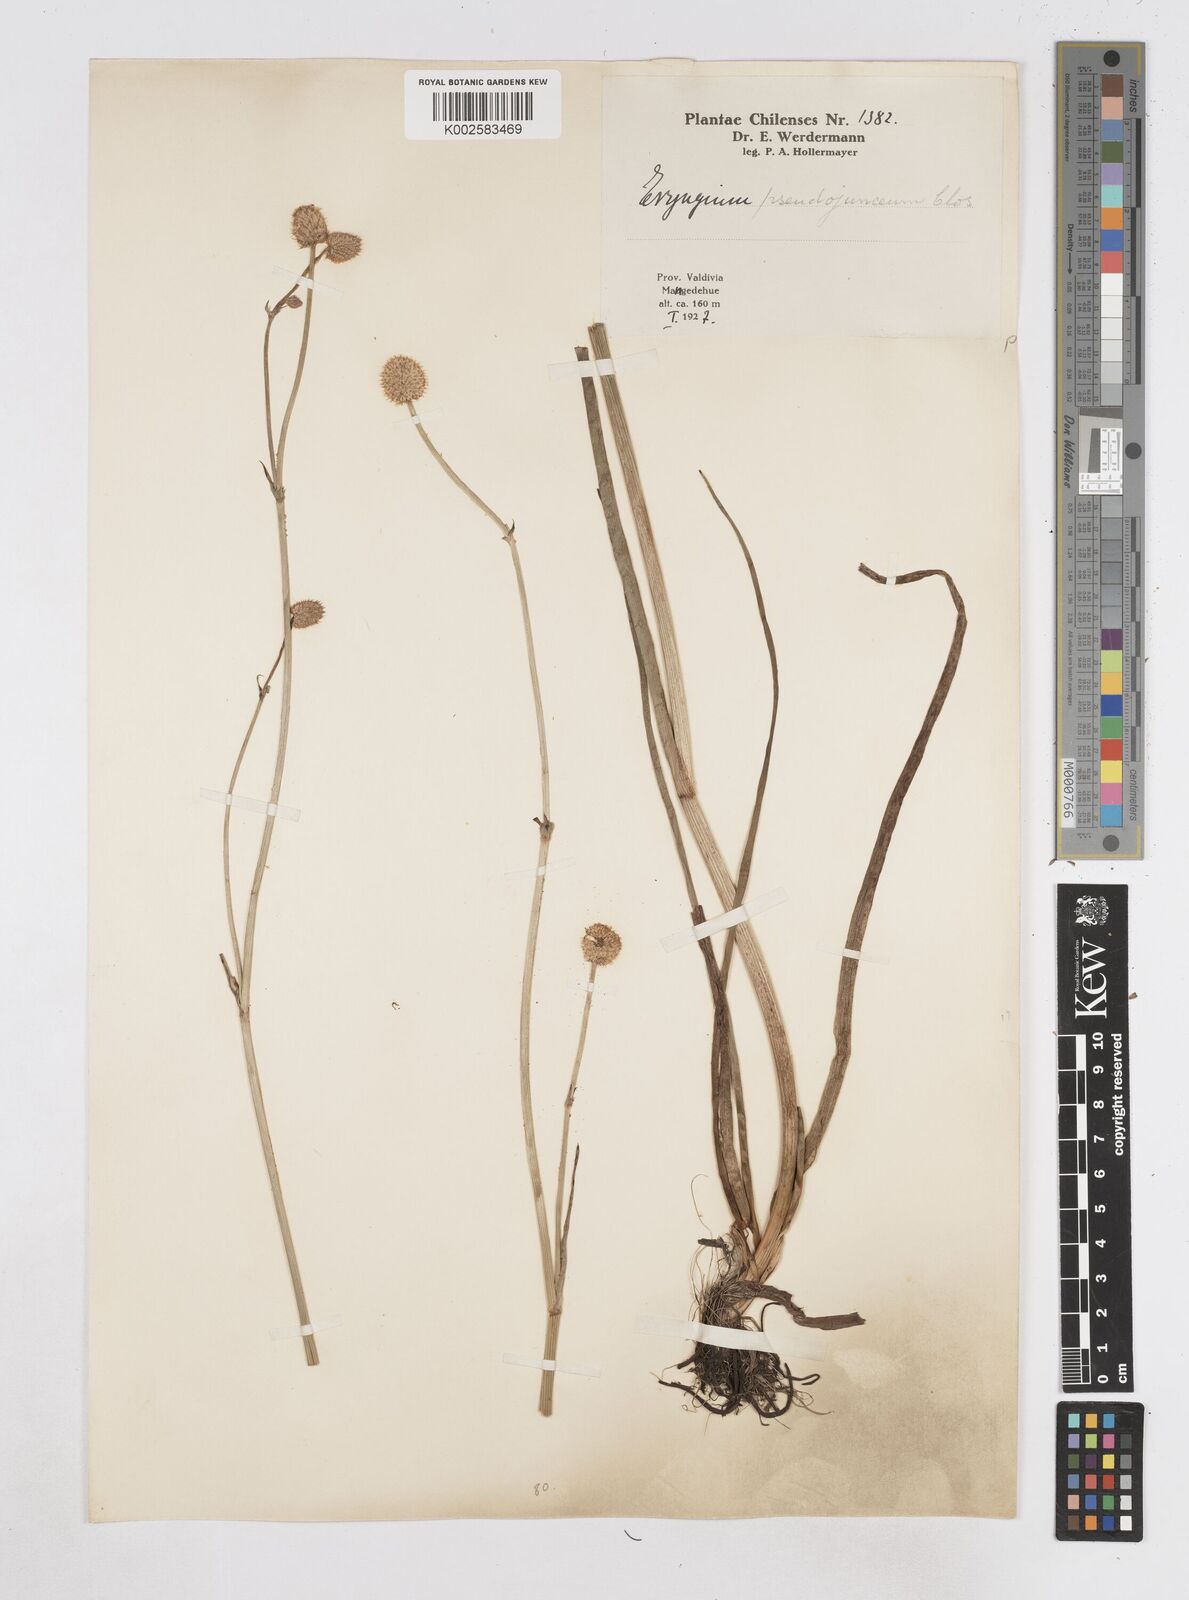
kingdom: Plantae
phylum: Tracheophyta
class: Magnoliopsida
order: Apiales
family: Apiaceae
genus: Eryngium
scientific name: Eryngium pseudojunceum
